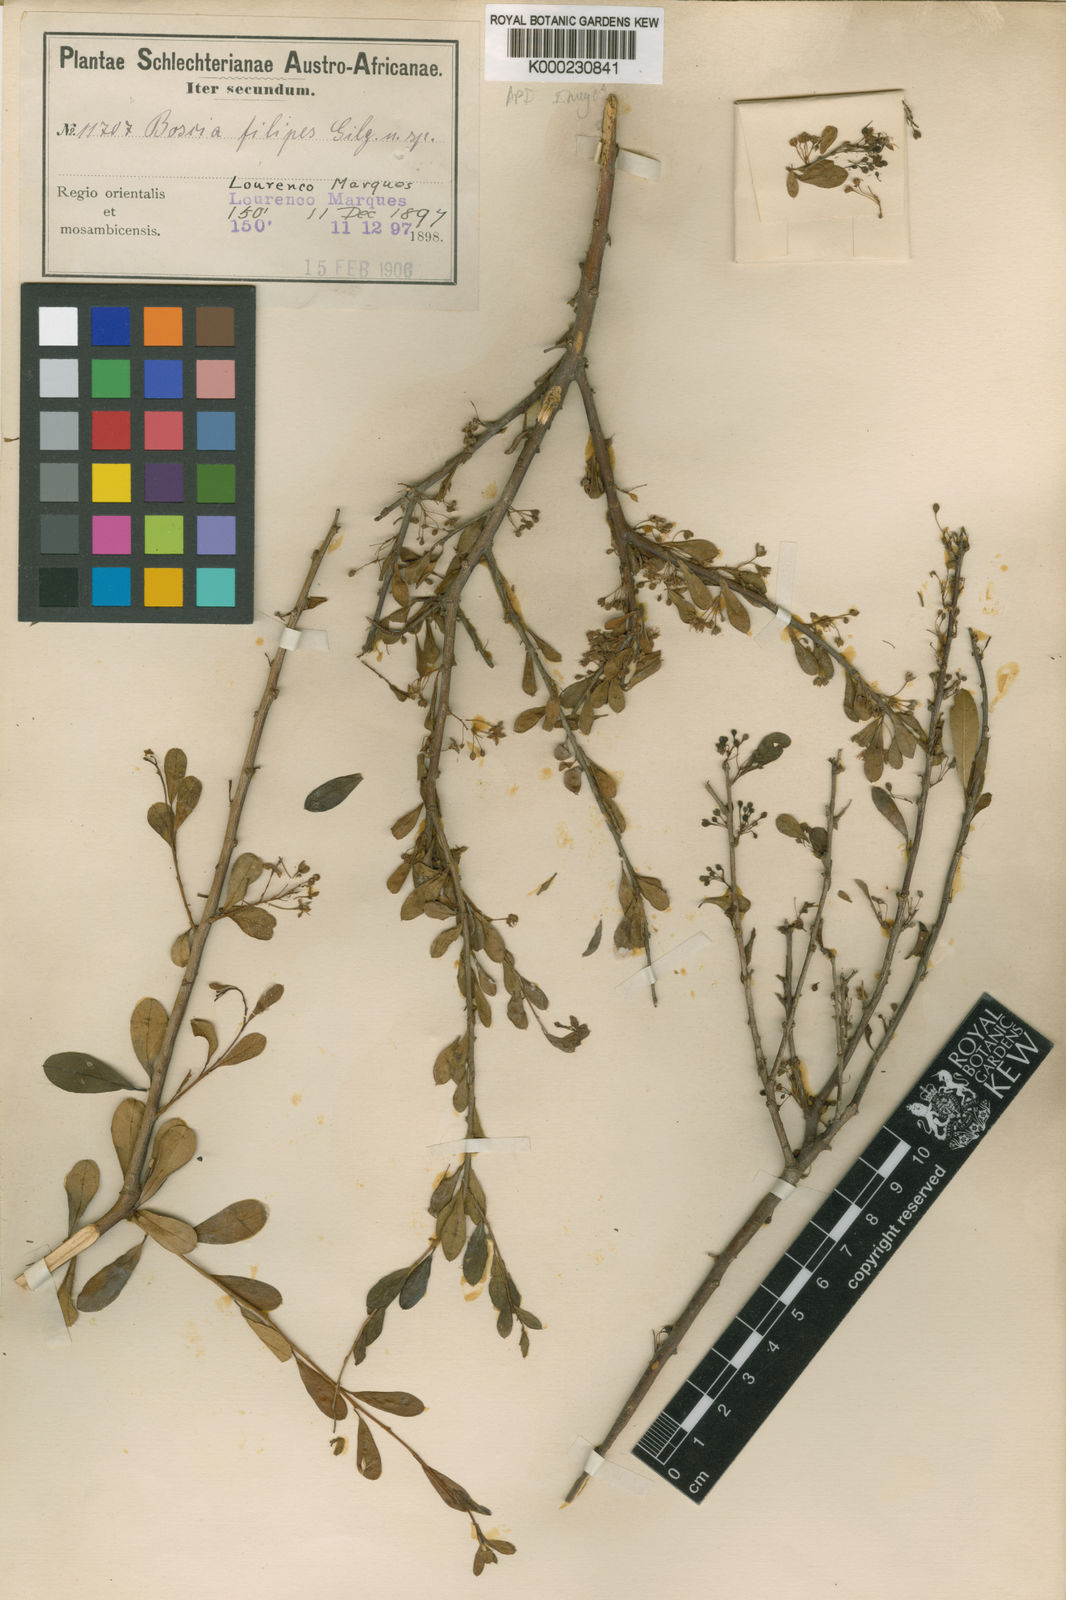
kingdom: Plantae
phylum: Tracheophyta
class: Magnoliopsida
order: Brassicales
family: Capparaceae
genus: Boscia
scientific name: Boscia foetida
